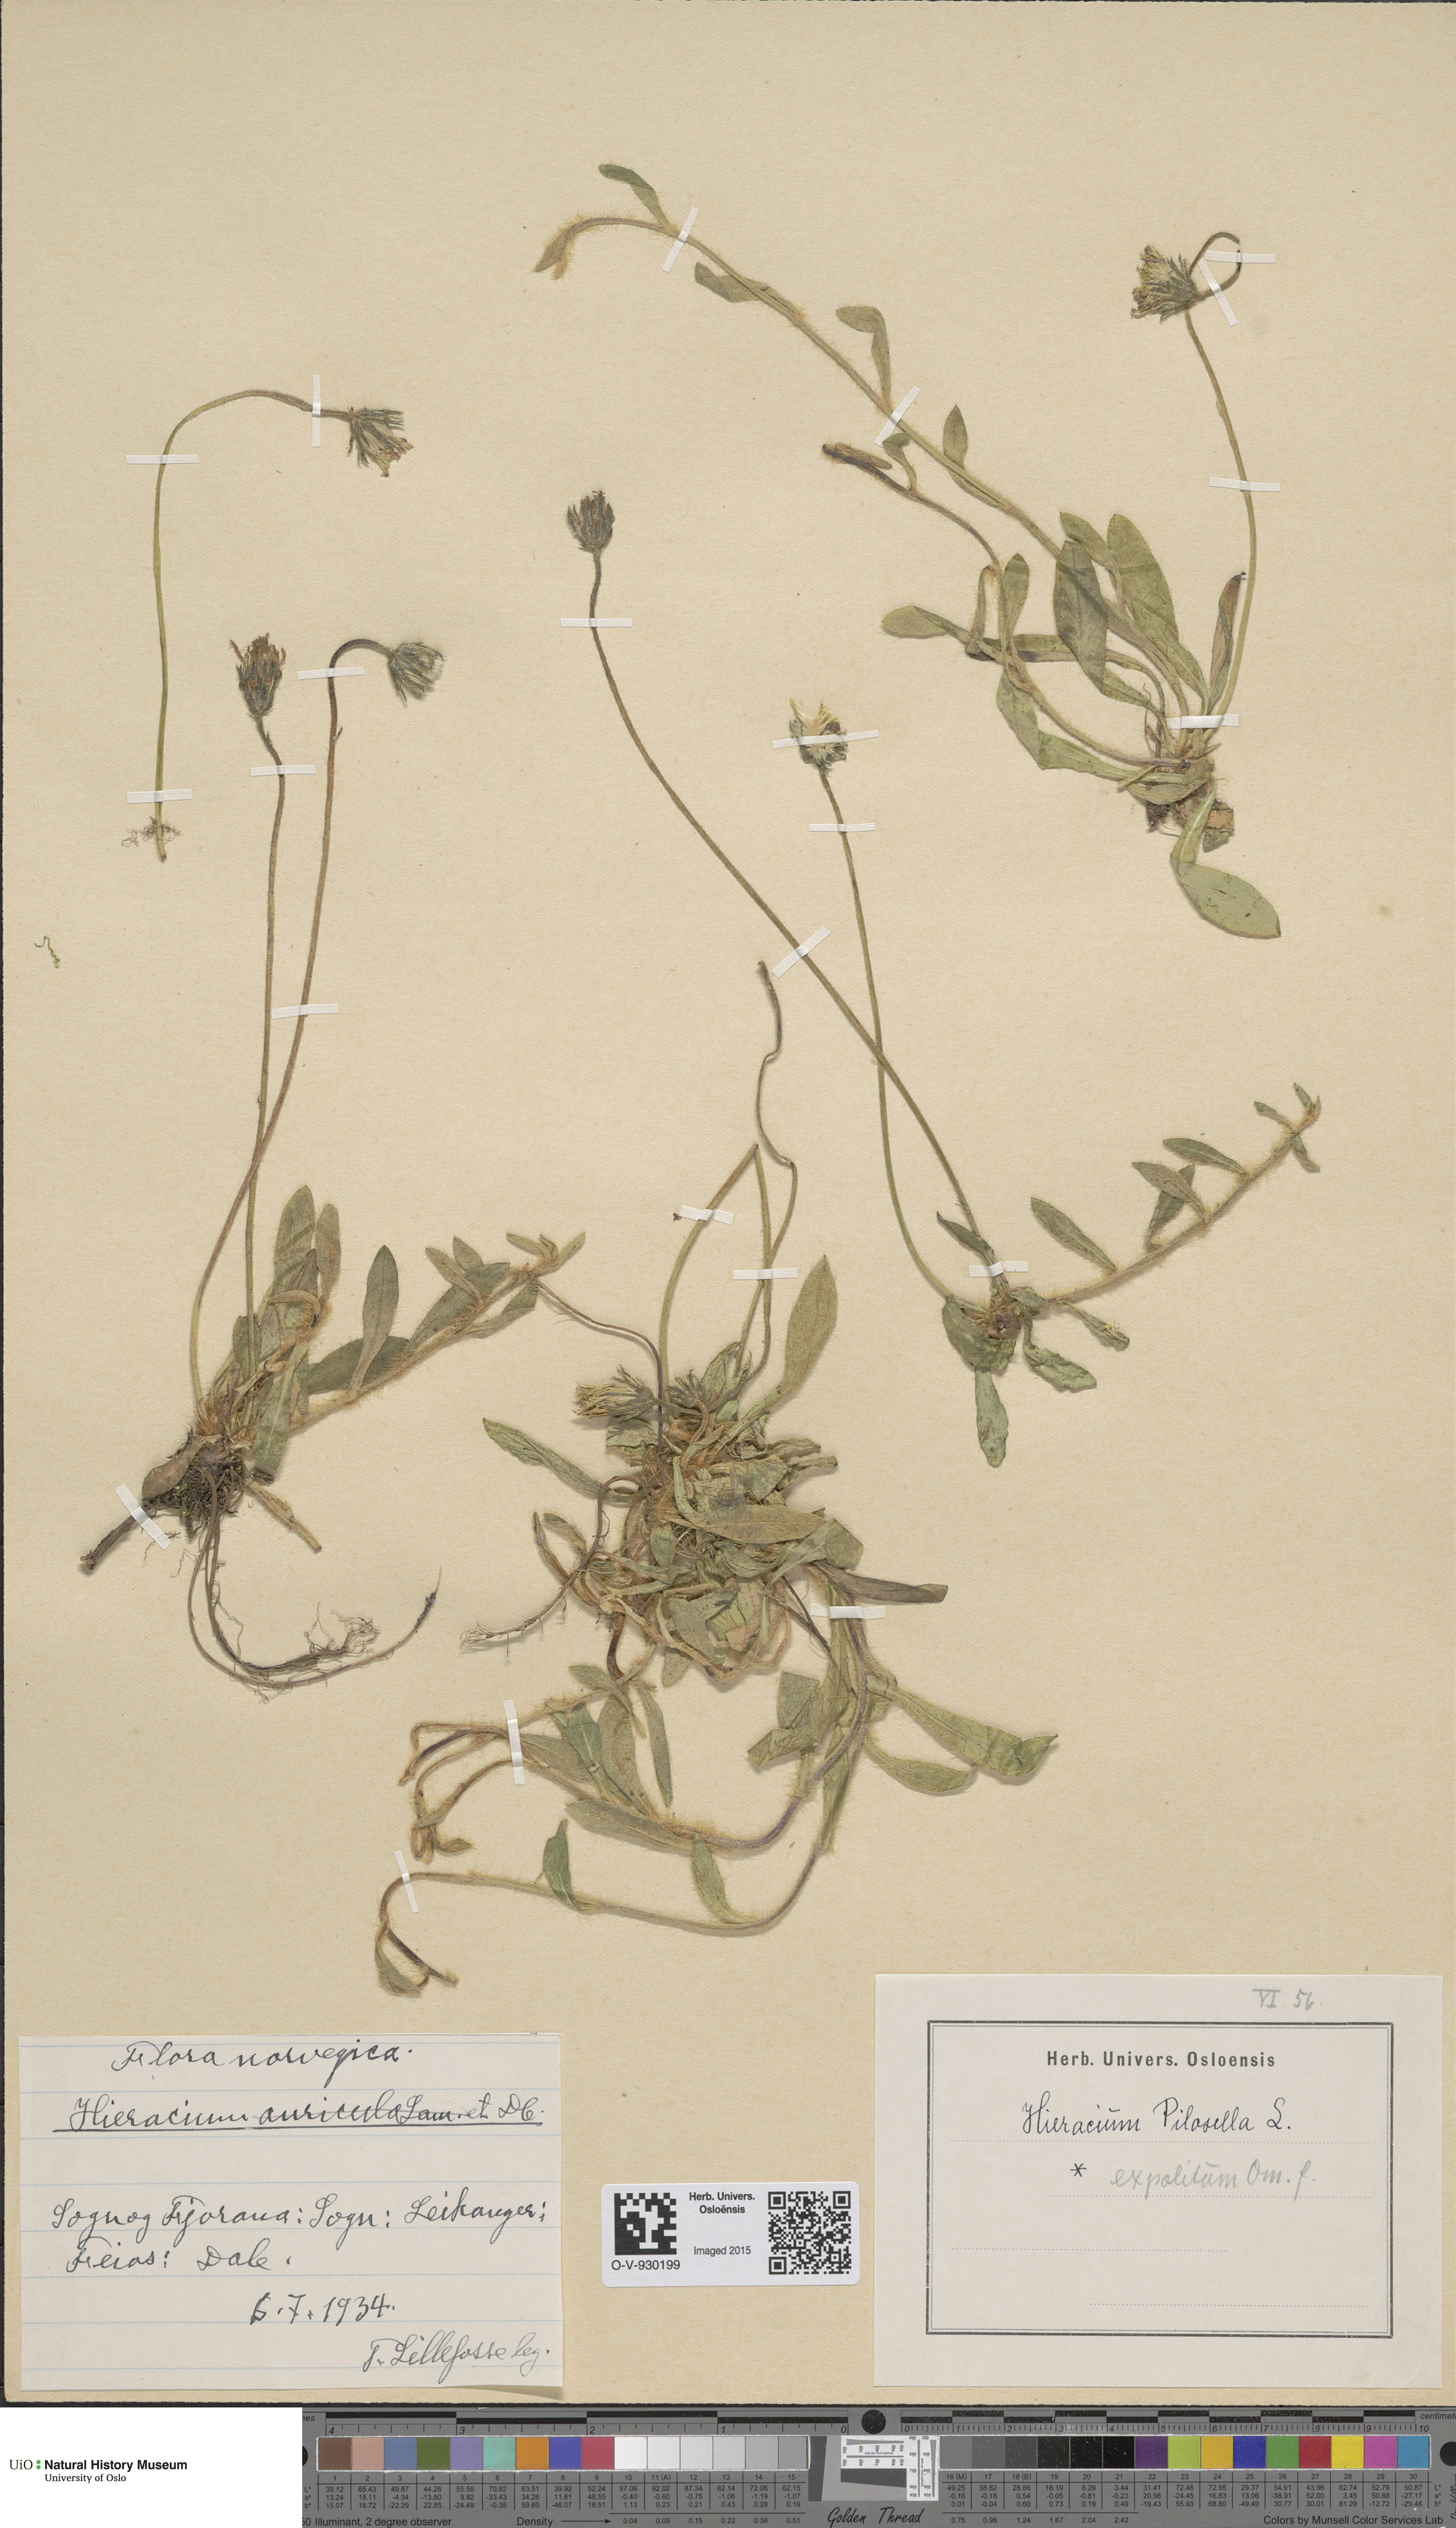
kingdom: Plantae
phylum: Tracheophyta
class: Magnoliopsida
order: Asterales
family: Asteraceae
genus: Pilosella
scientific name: Pilosella officinarum
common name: Mouse-ear hawkweed
